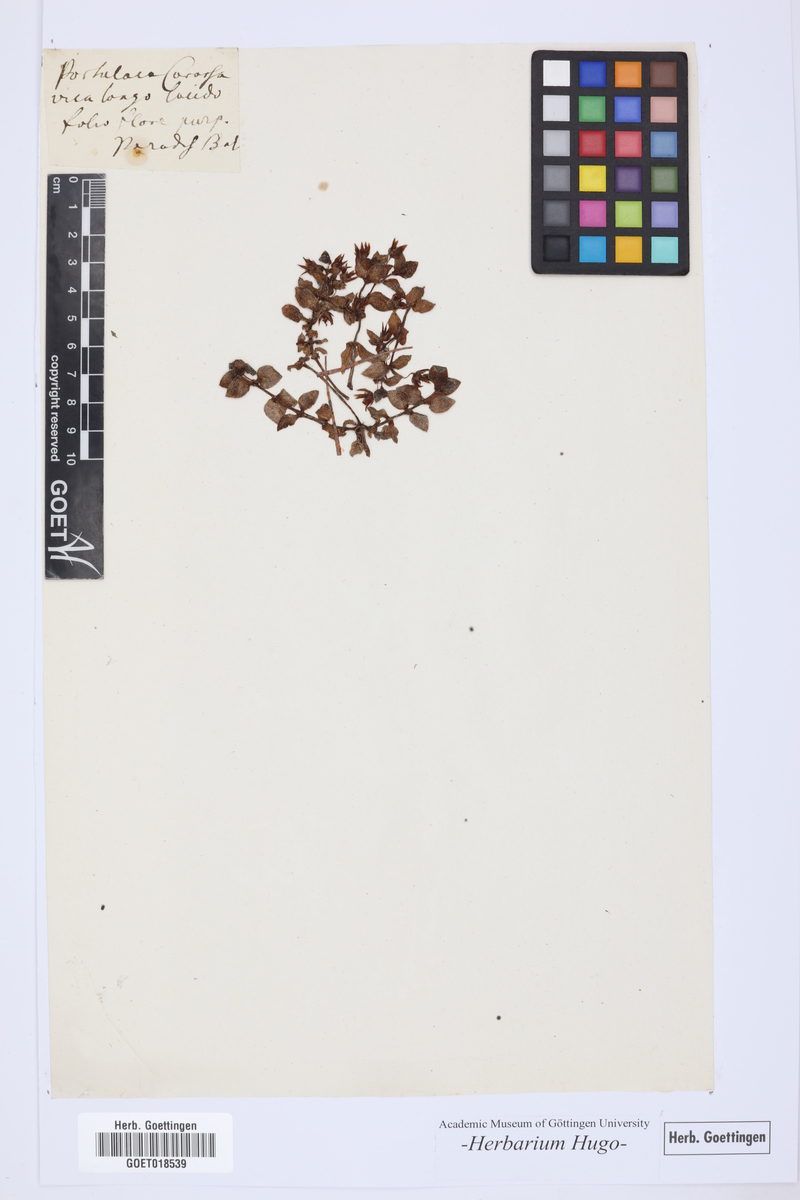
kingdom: Plantae
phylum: Tracheophyta
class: Magnoliopsida
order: Caryophyllales
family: Aizoaceae
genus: Sesuvium
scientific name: Sesuvium portulacastrum
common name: Sea-purslane
